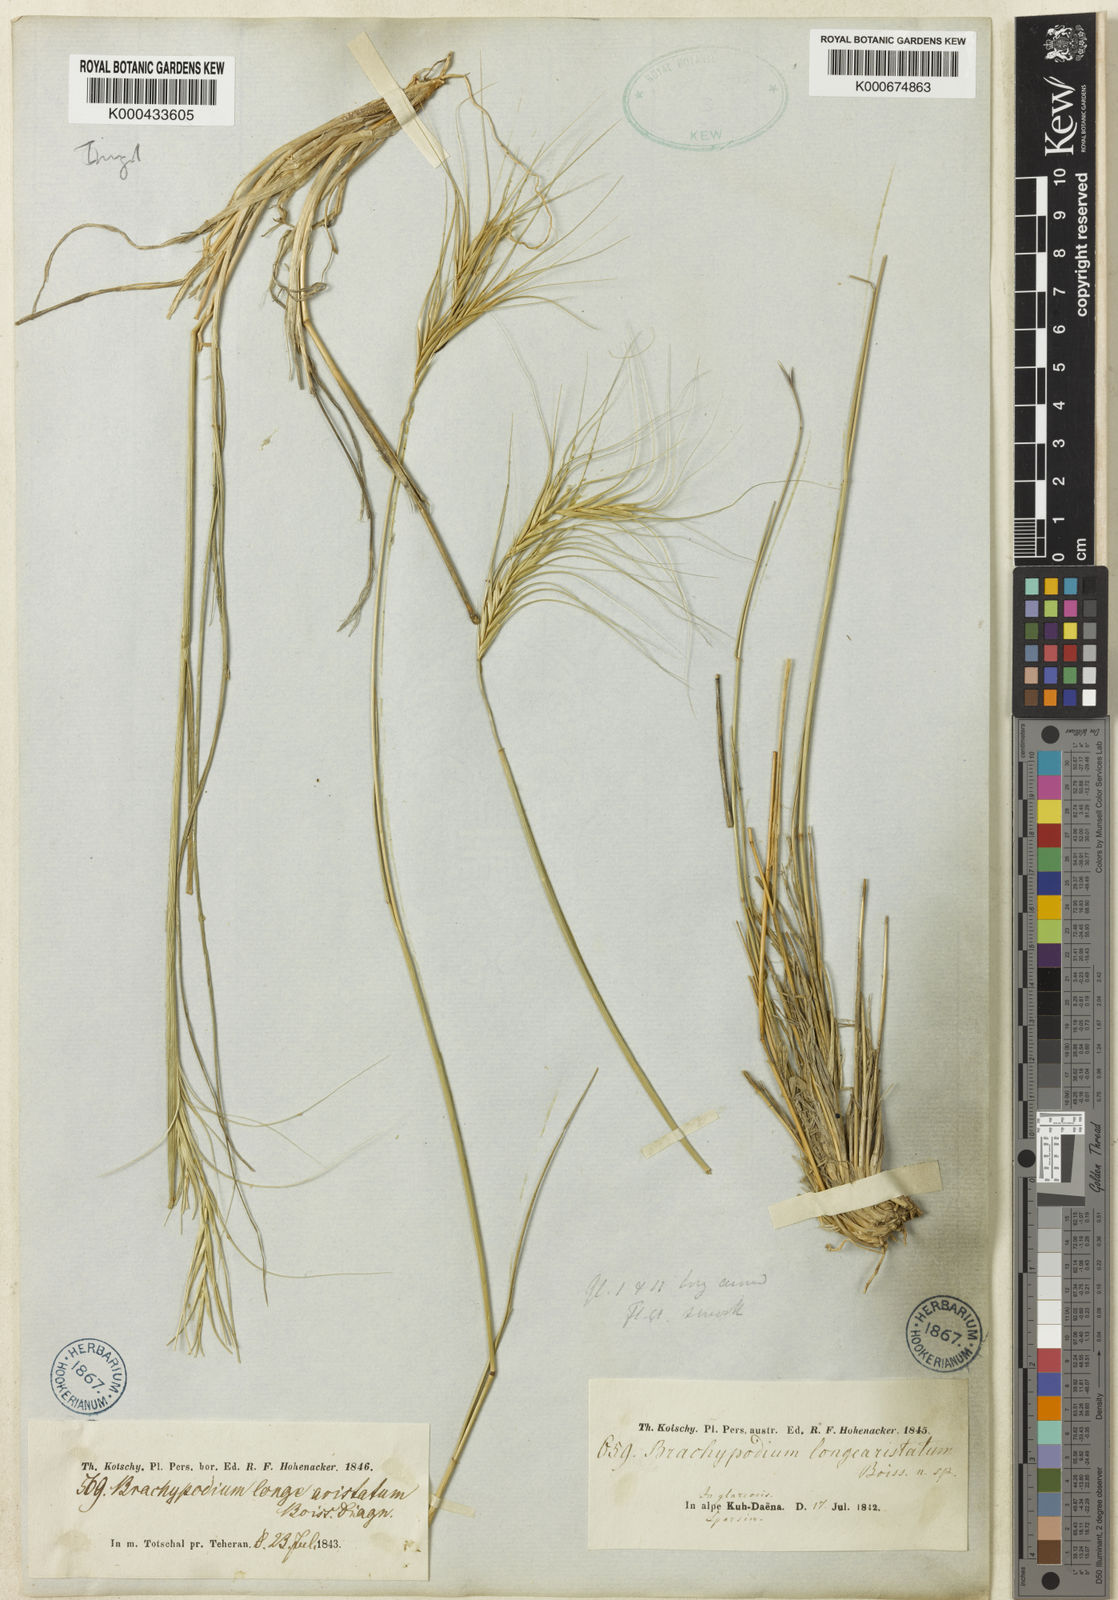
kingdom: Plantae
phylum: Tracheophyta
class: Liliopsida
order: Poales
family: Poaceae
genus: Elymus
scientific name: Elymus longearistatus
